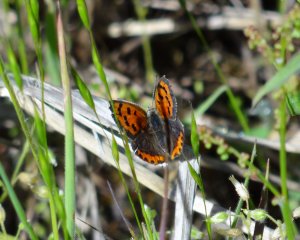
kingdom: Animalia
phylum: Arthropoda
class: Insecta
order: Lepidoptera
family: Lycaenidae
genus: Lycaena
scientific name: Lycaena phlaeas
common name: American Copper
